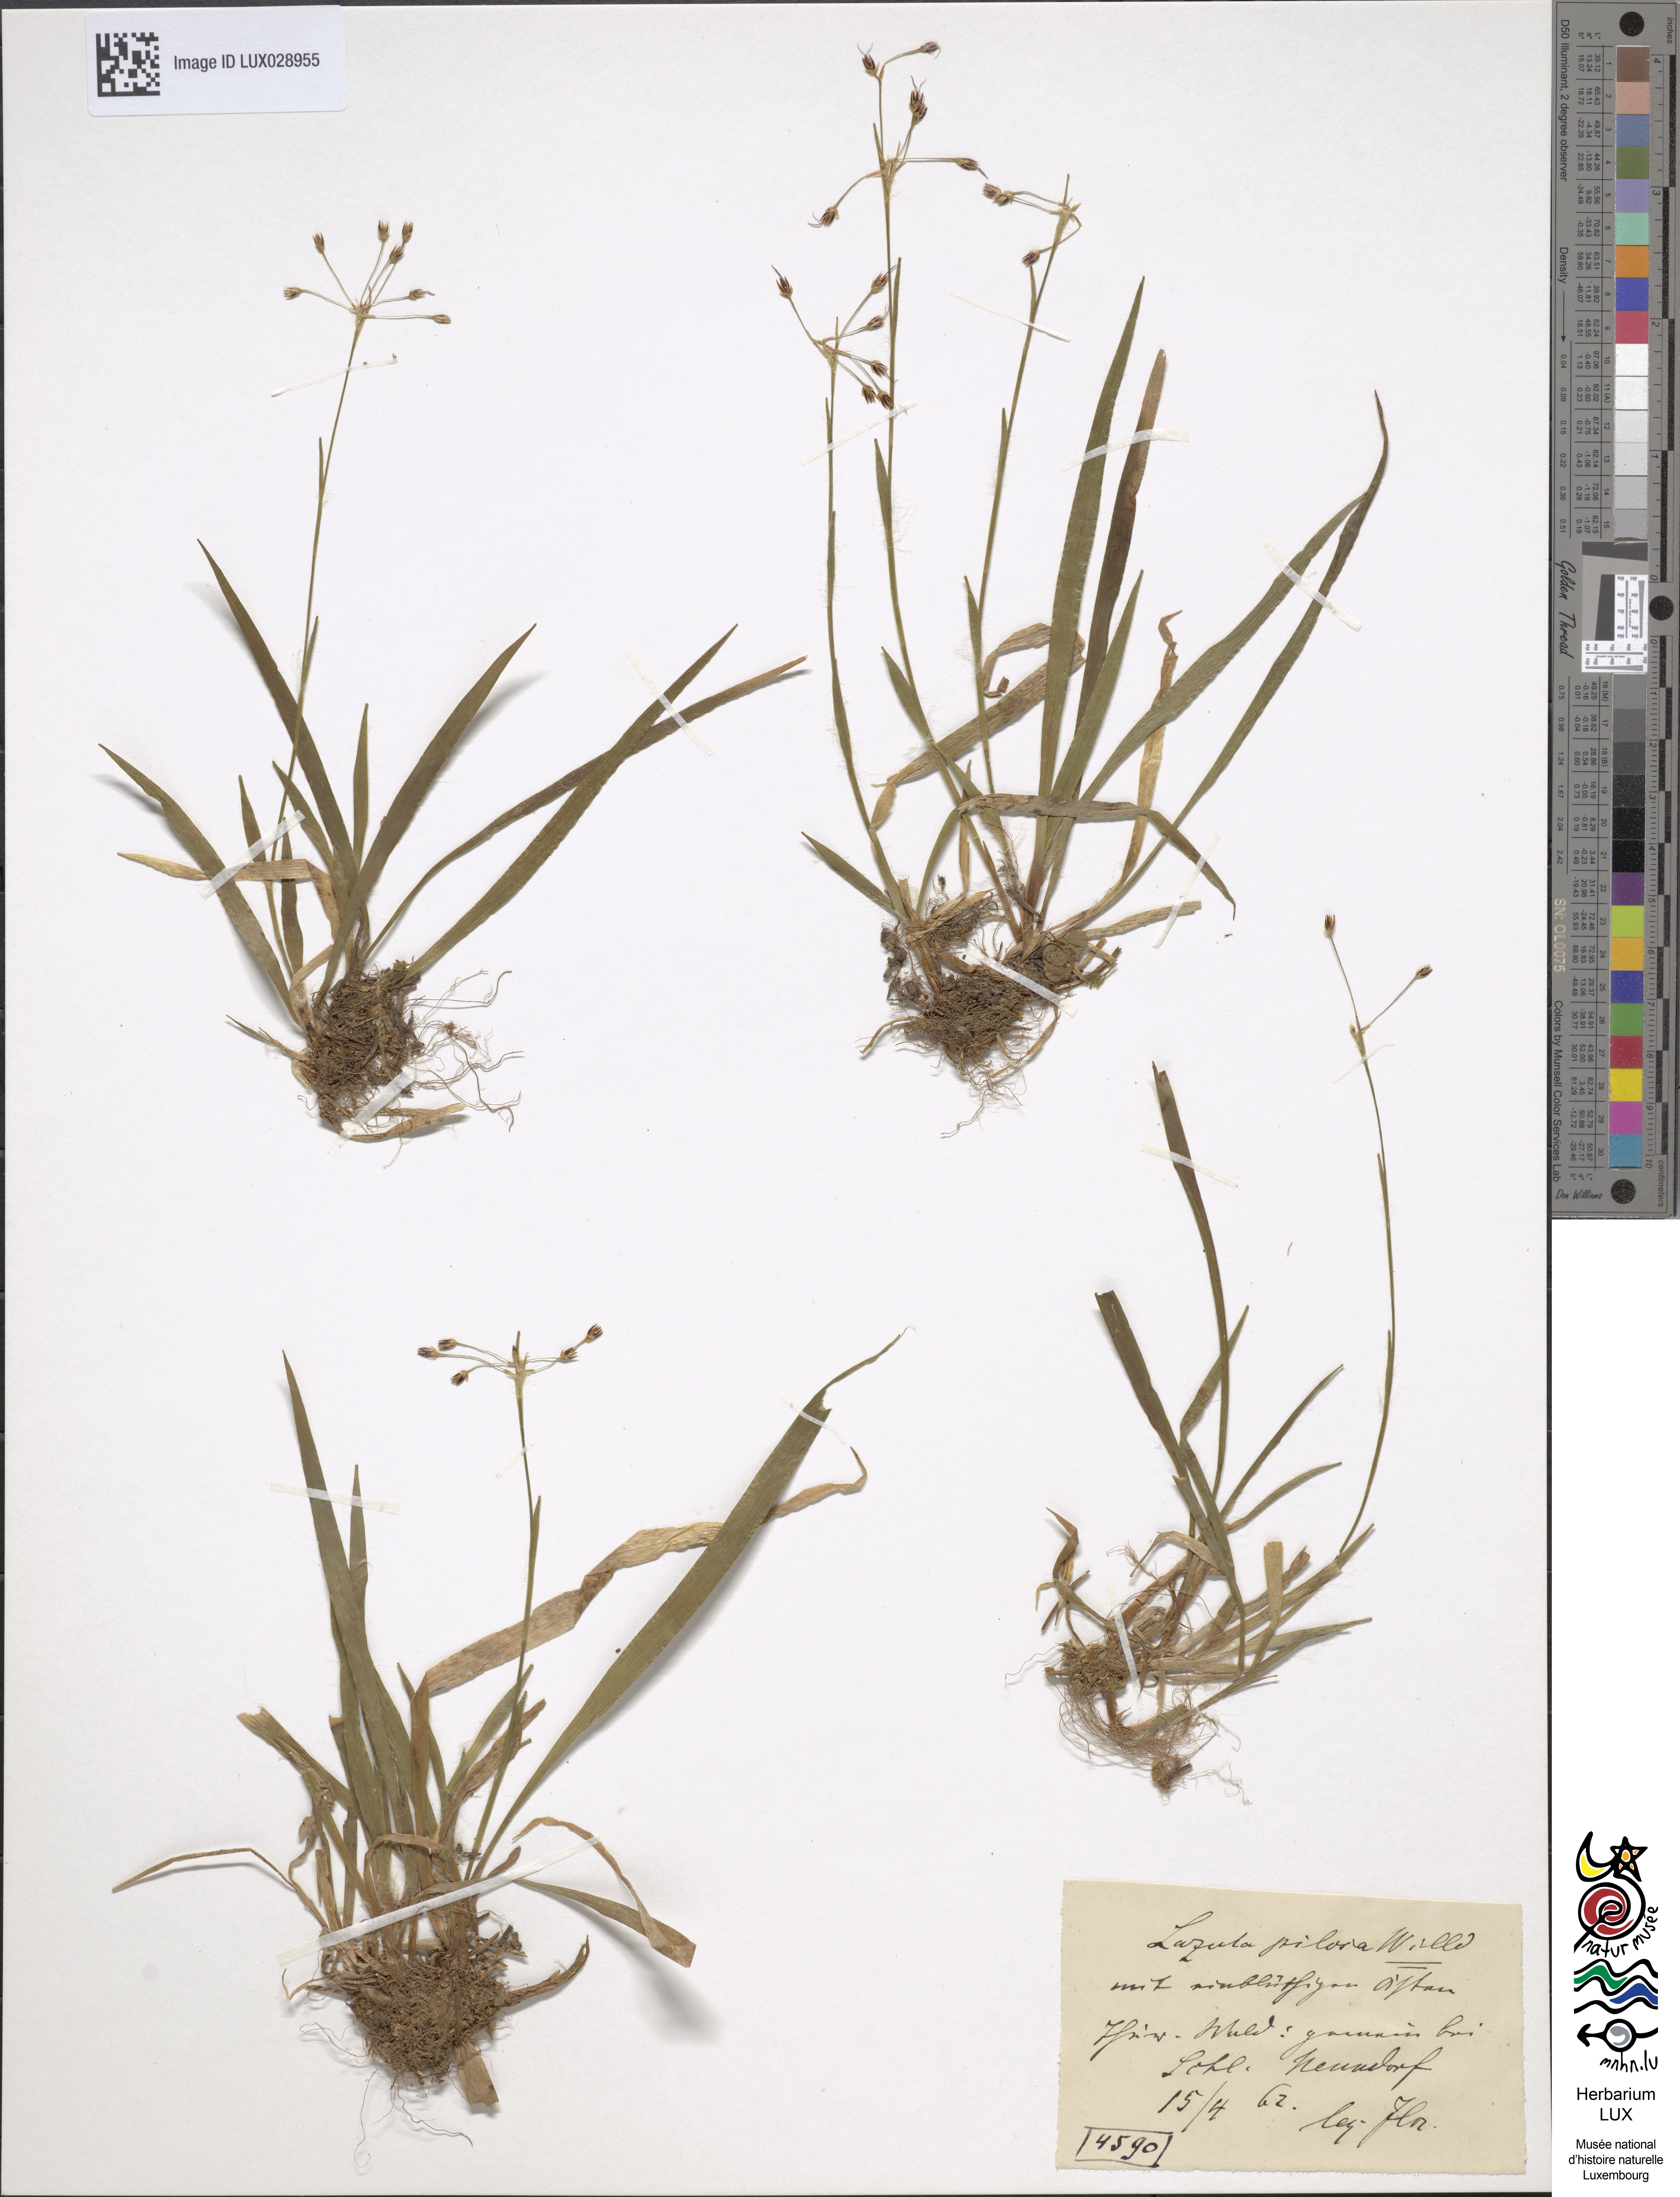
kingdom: Plantae
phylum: Tracheophyta
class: Liliopsida
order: Poales
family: Juncaceae
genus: Luzula
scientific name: Luzula pilosa
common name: Hairy wood-rush
